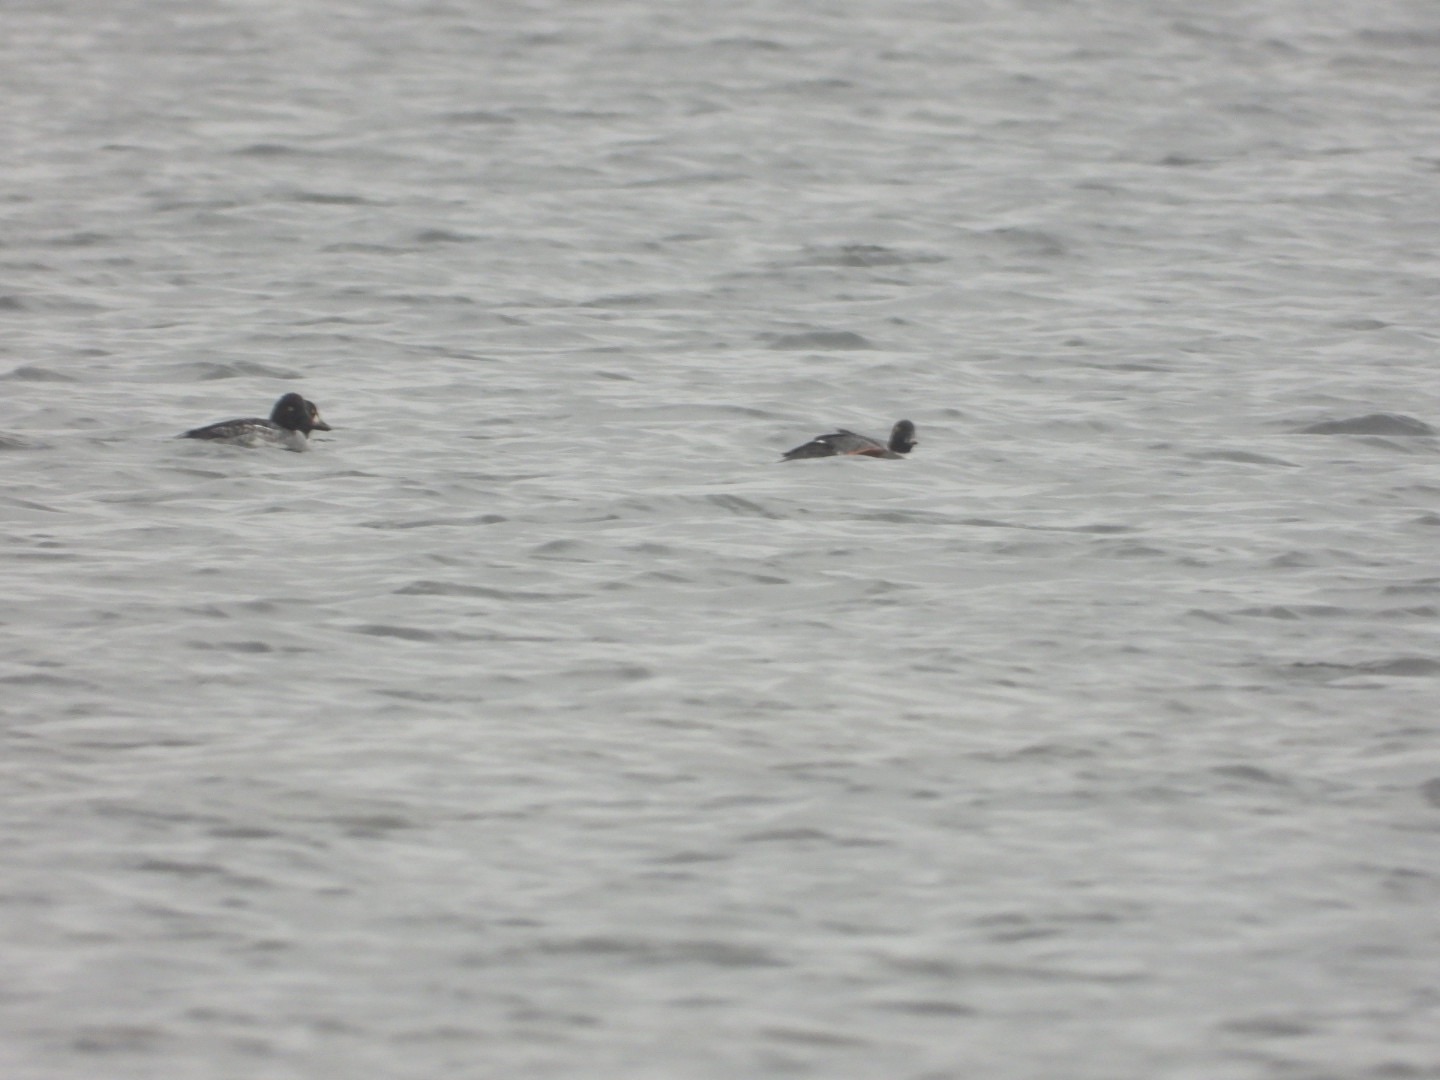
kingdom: Animalia
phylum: Chordata
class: Aves
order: Anseriformes
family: Anatidae
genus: Bucephala
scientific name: Bucephala clangula
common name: Hvinand
